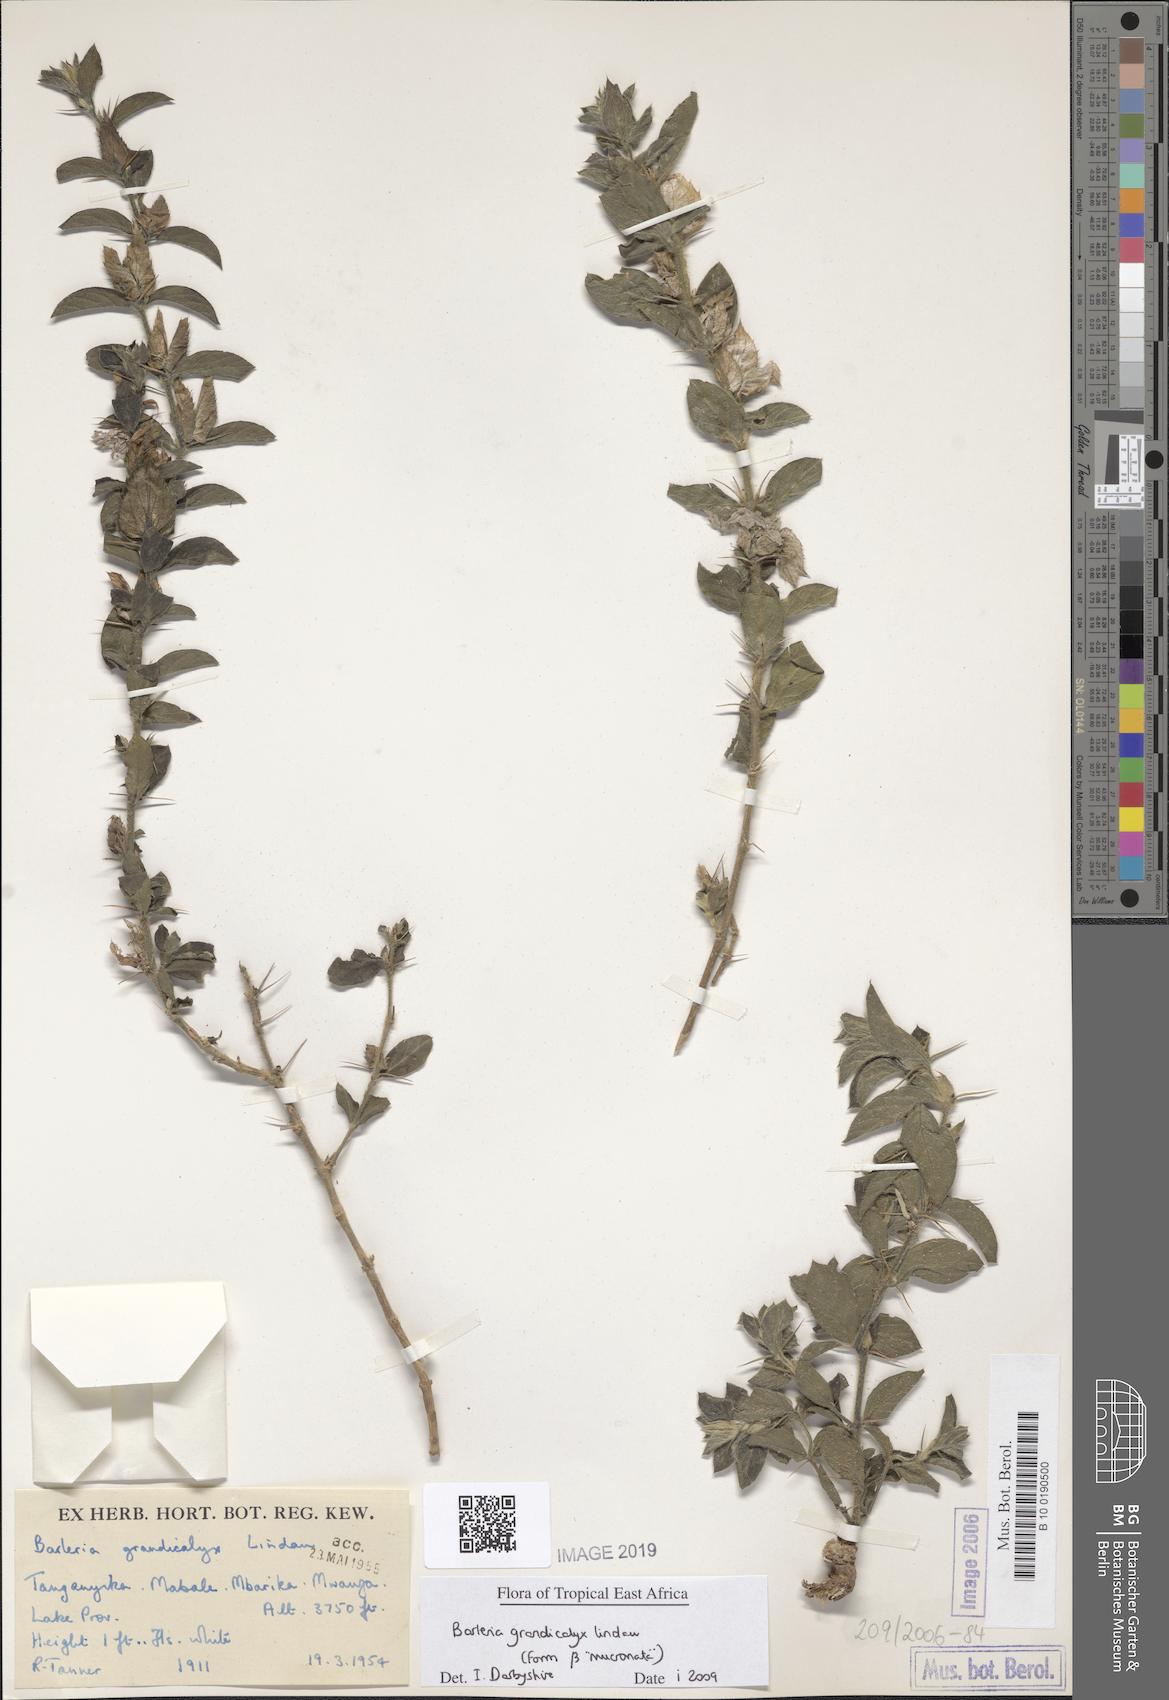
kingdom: Plantae
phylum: Tracheophyta
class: Magnoliopsida
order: Lamiales
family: Acanthaceae
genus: Barleria
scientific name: Barleria grandicalyx
